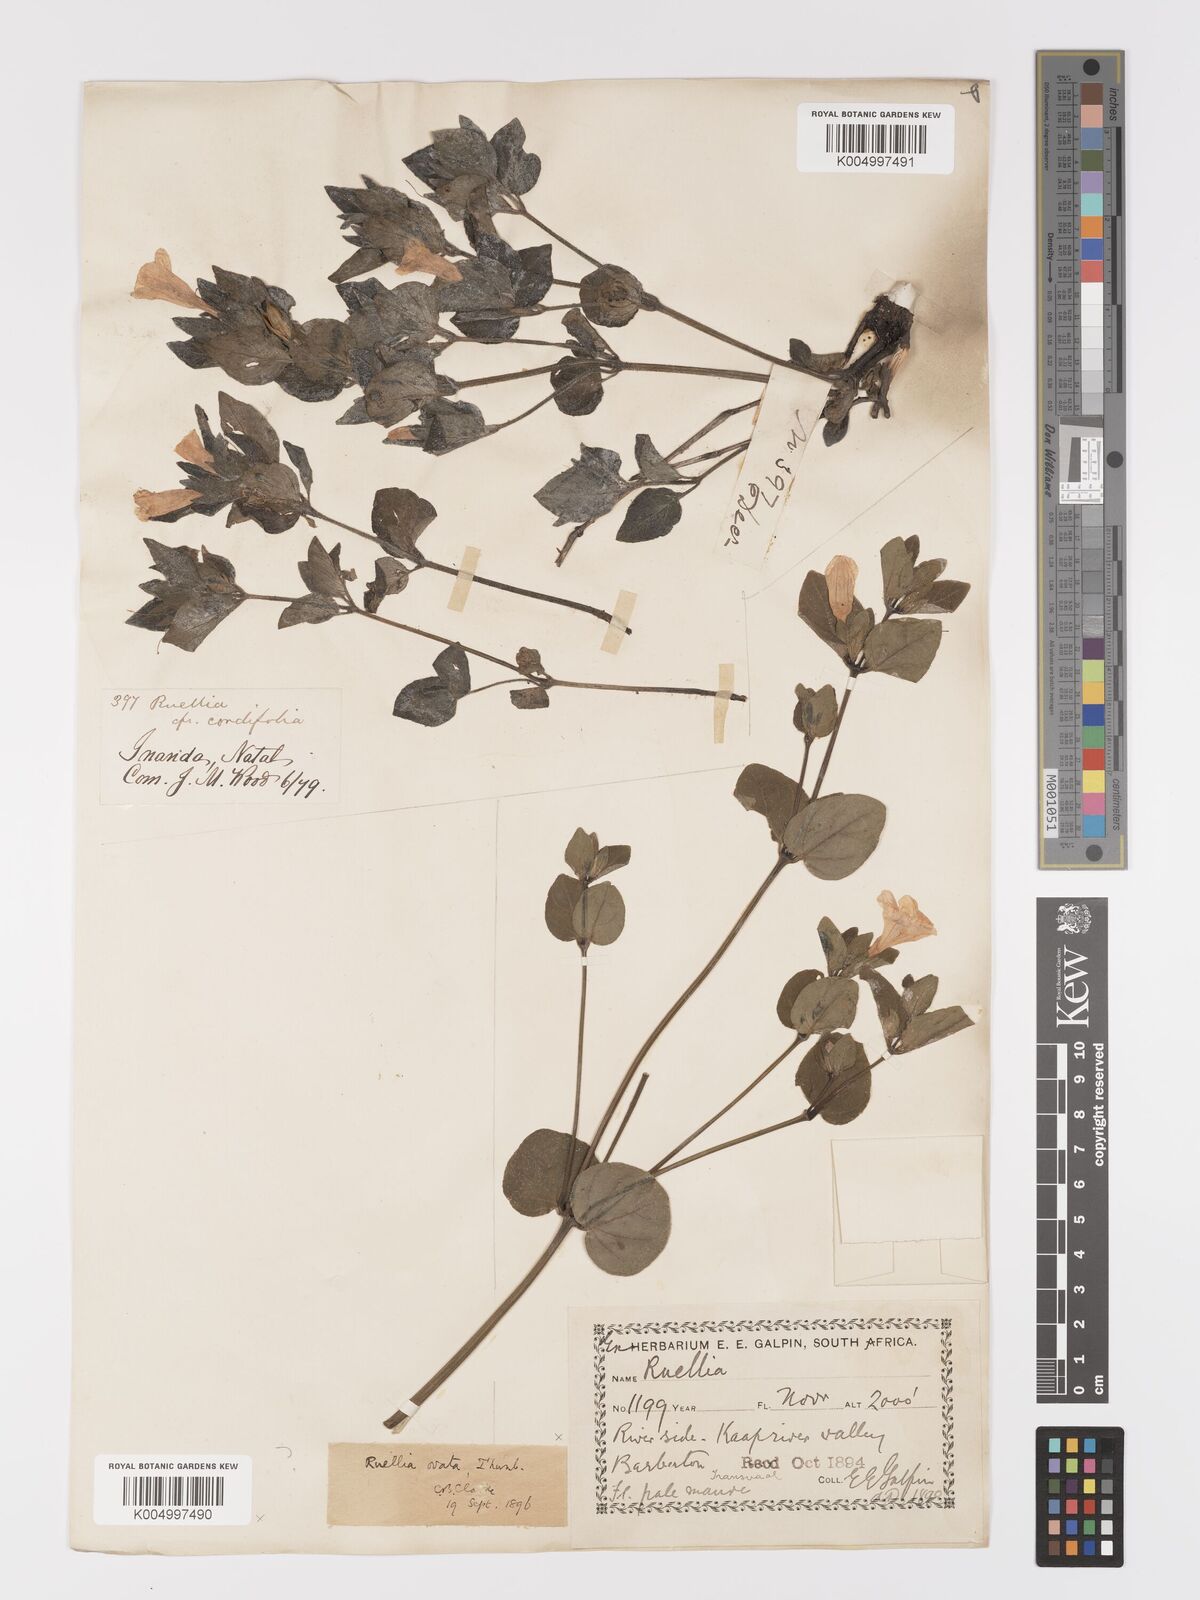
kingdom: Plantae
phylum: Tracheophyta
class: Magnoliopsida
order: Lamiales
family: Acanthaceae
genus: Ruellia
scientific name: Ruellia cordata
